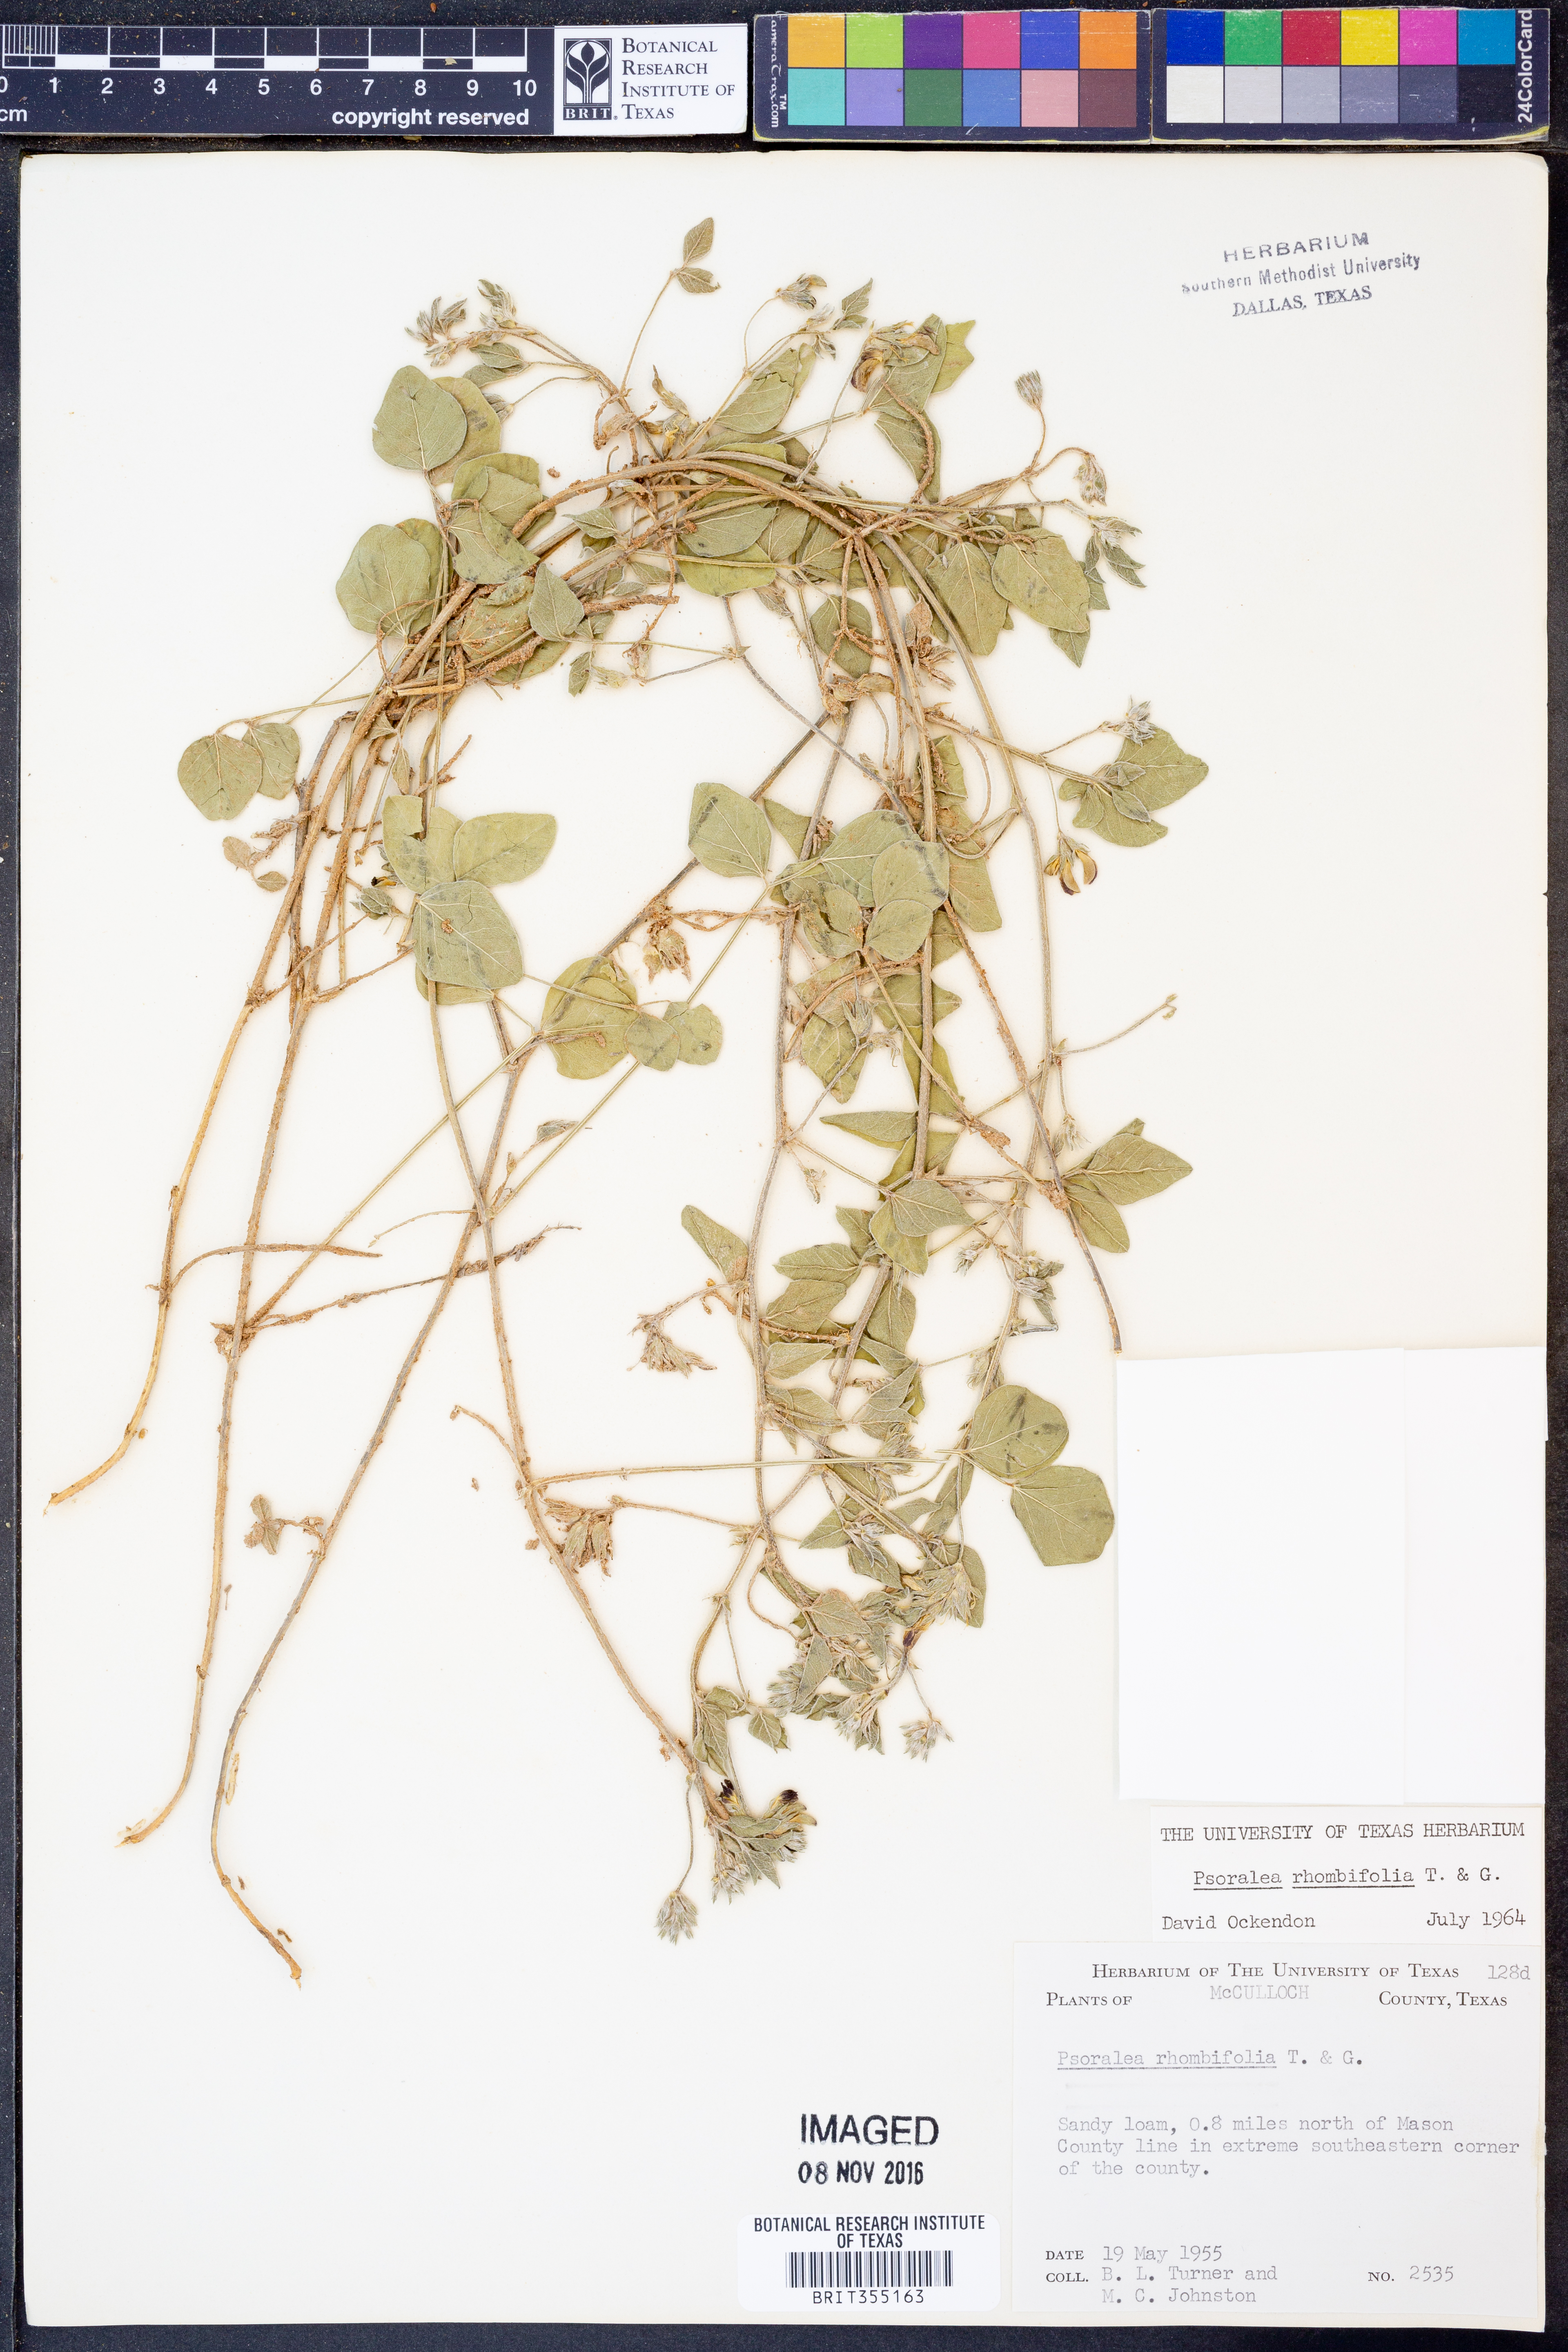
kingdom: Plantae
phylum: Tracheophyta
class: Magnoliopsida
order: Fabales
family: Fabaceae
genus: Pediomelum
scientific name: Pediomelum rhombifolium
